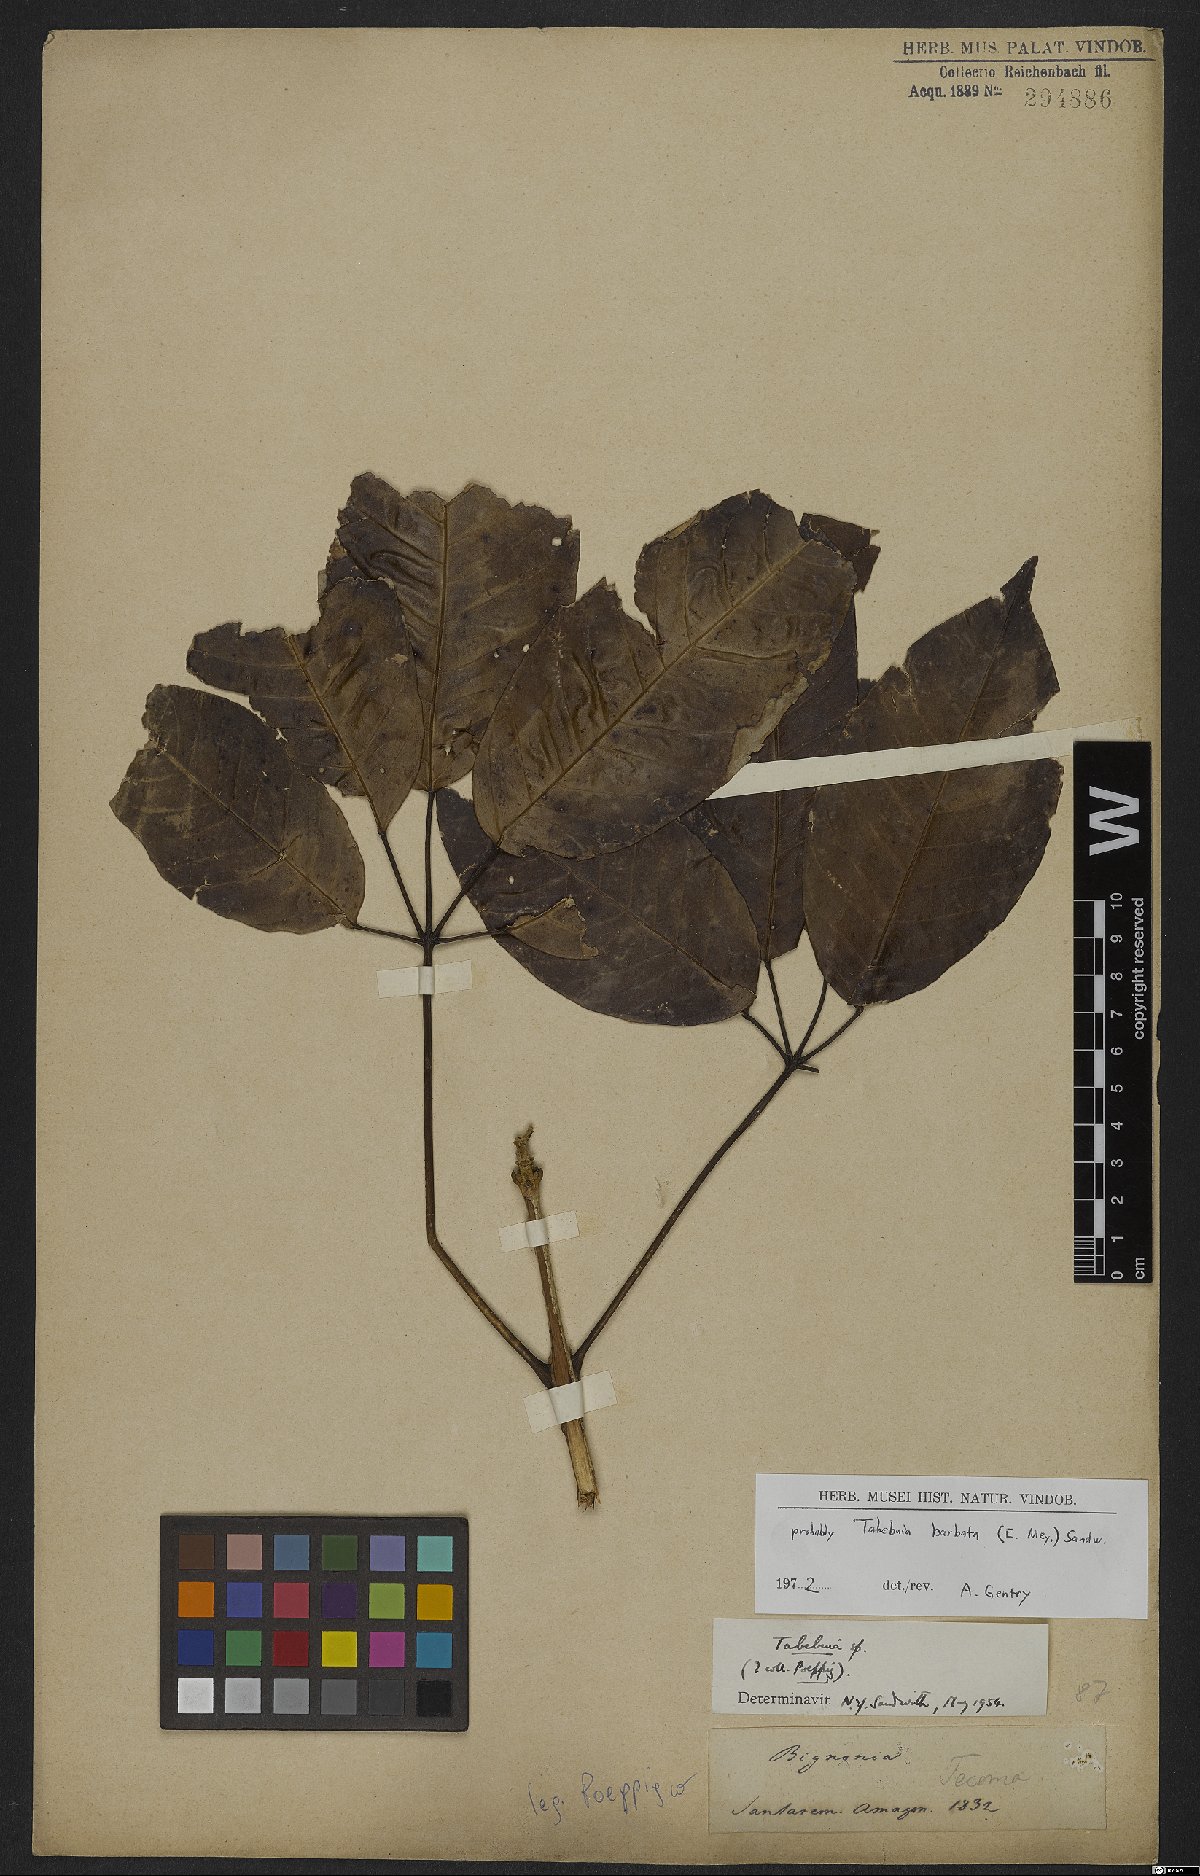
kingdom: Plantae
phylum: Tracheophyta
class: Magnoliopsida
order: Lamiales
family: Bignoniaceae
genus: Handroanthus
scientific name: Handroanthus barbatus
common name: Trumpet trees
